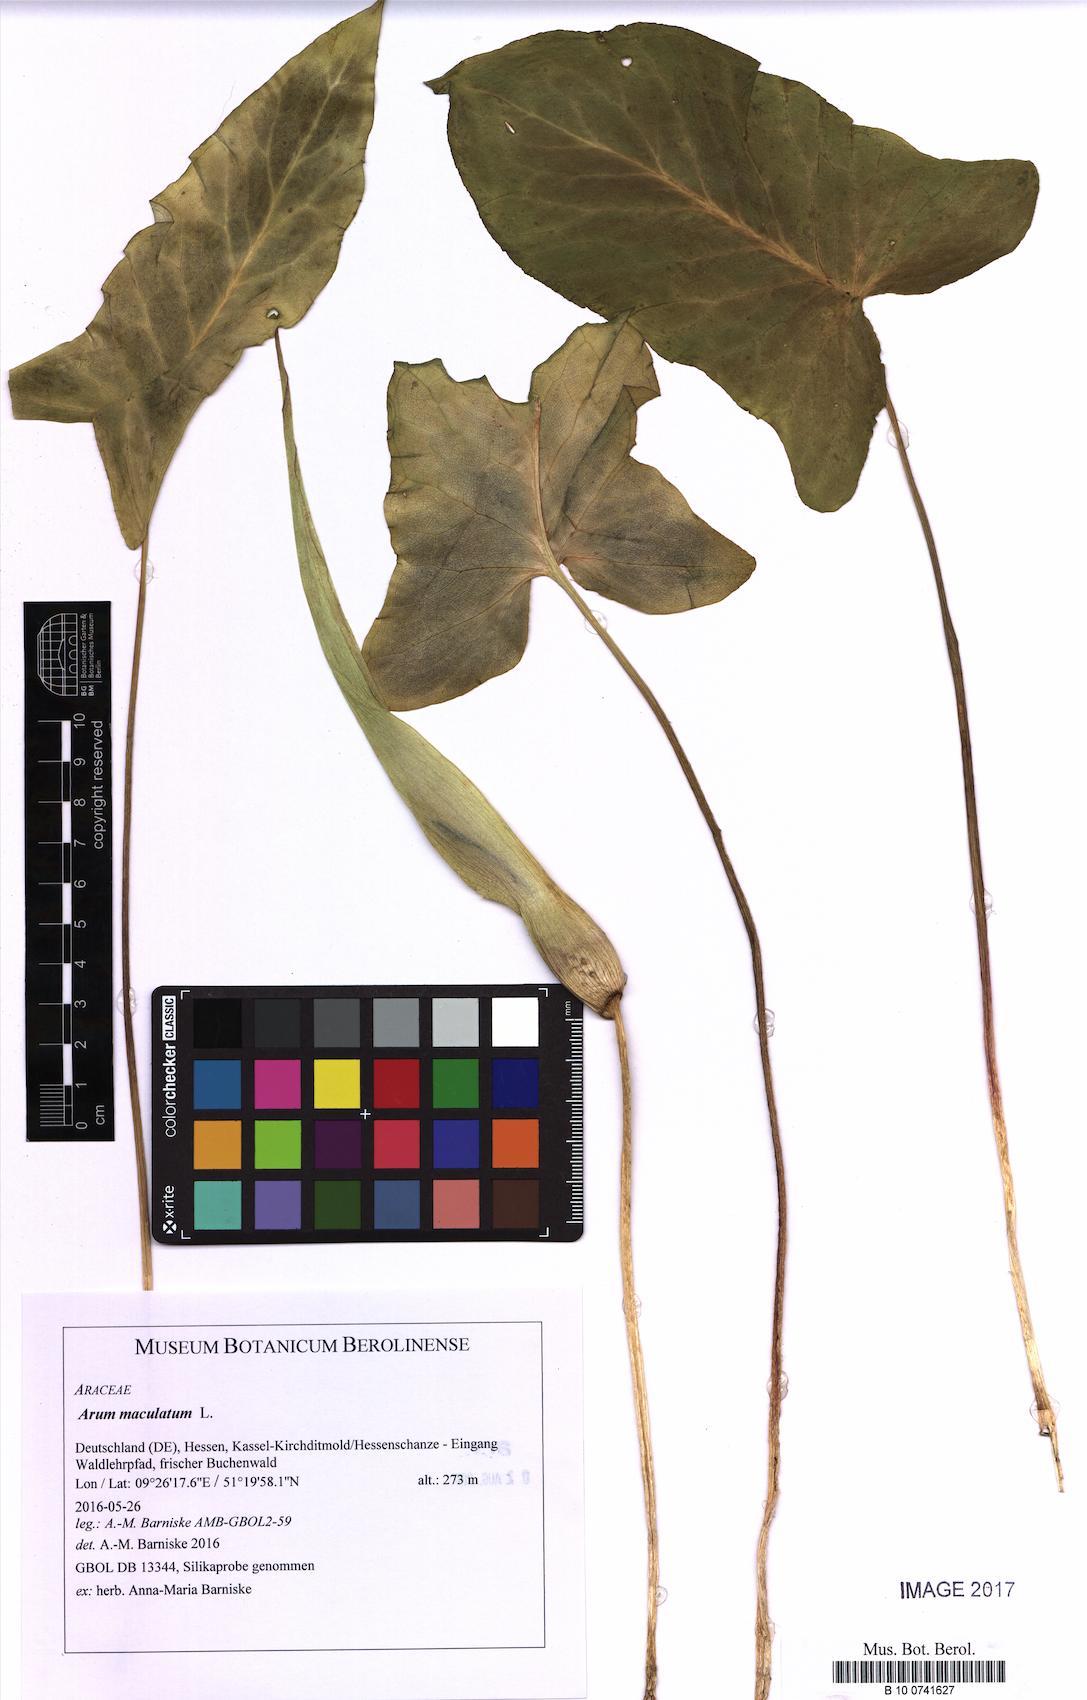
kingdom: Plantae
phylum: Tracheophyta
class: Liliopsida
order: Alismatales
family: Araceae
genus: Arum
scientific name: Arum maculatum
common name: Lords-and-ladies
